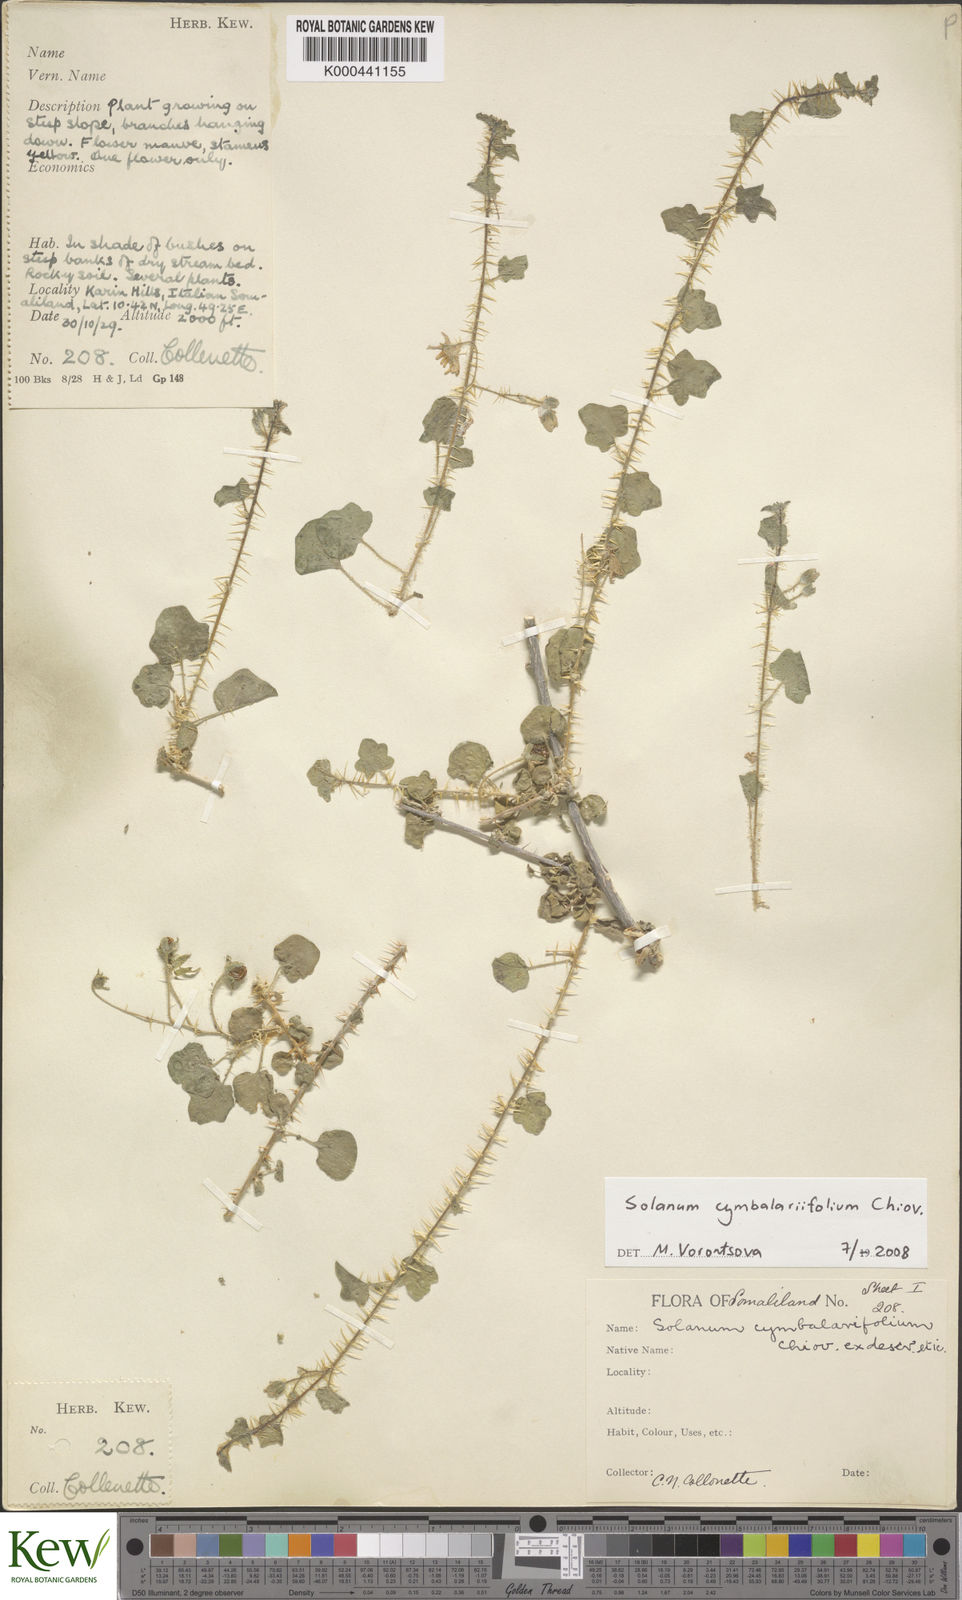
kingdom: Plantae
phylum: Tracheophyta
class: Magnoliopsida
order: Solanales
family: Solanaceae
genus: Solanum
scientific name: Solanum cymbalariifolium
